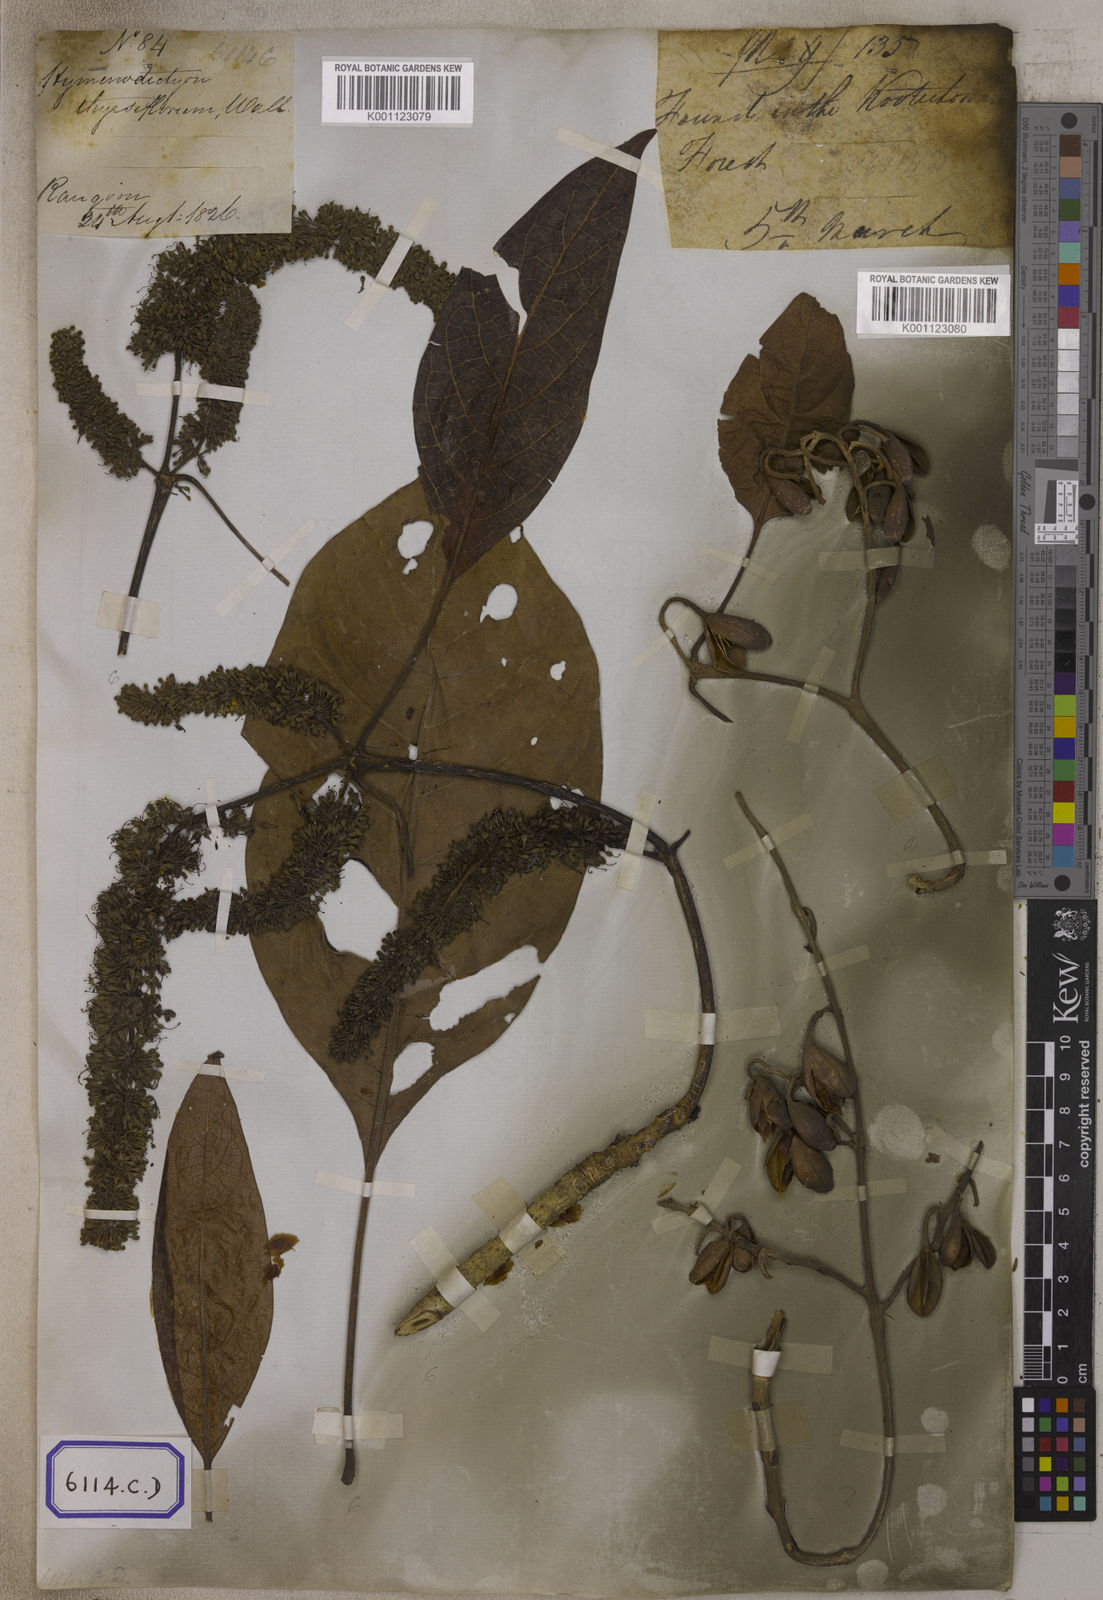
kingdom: Plantae
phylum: Tracheophyta
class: Magnoliopsida
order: Gentianales
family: Rubiaceae
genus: Hymenodictyon
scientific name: Hymenodictyon orixense
